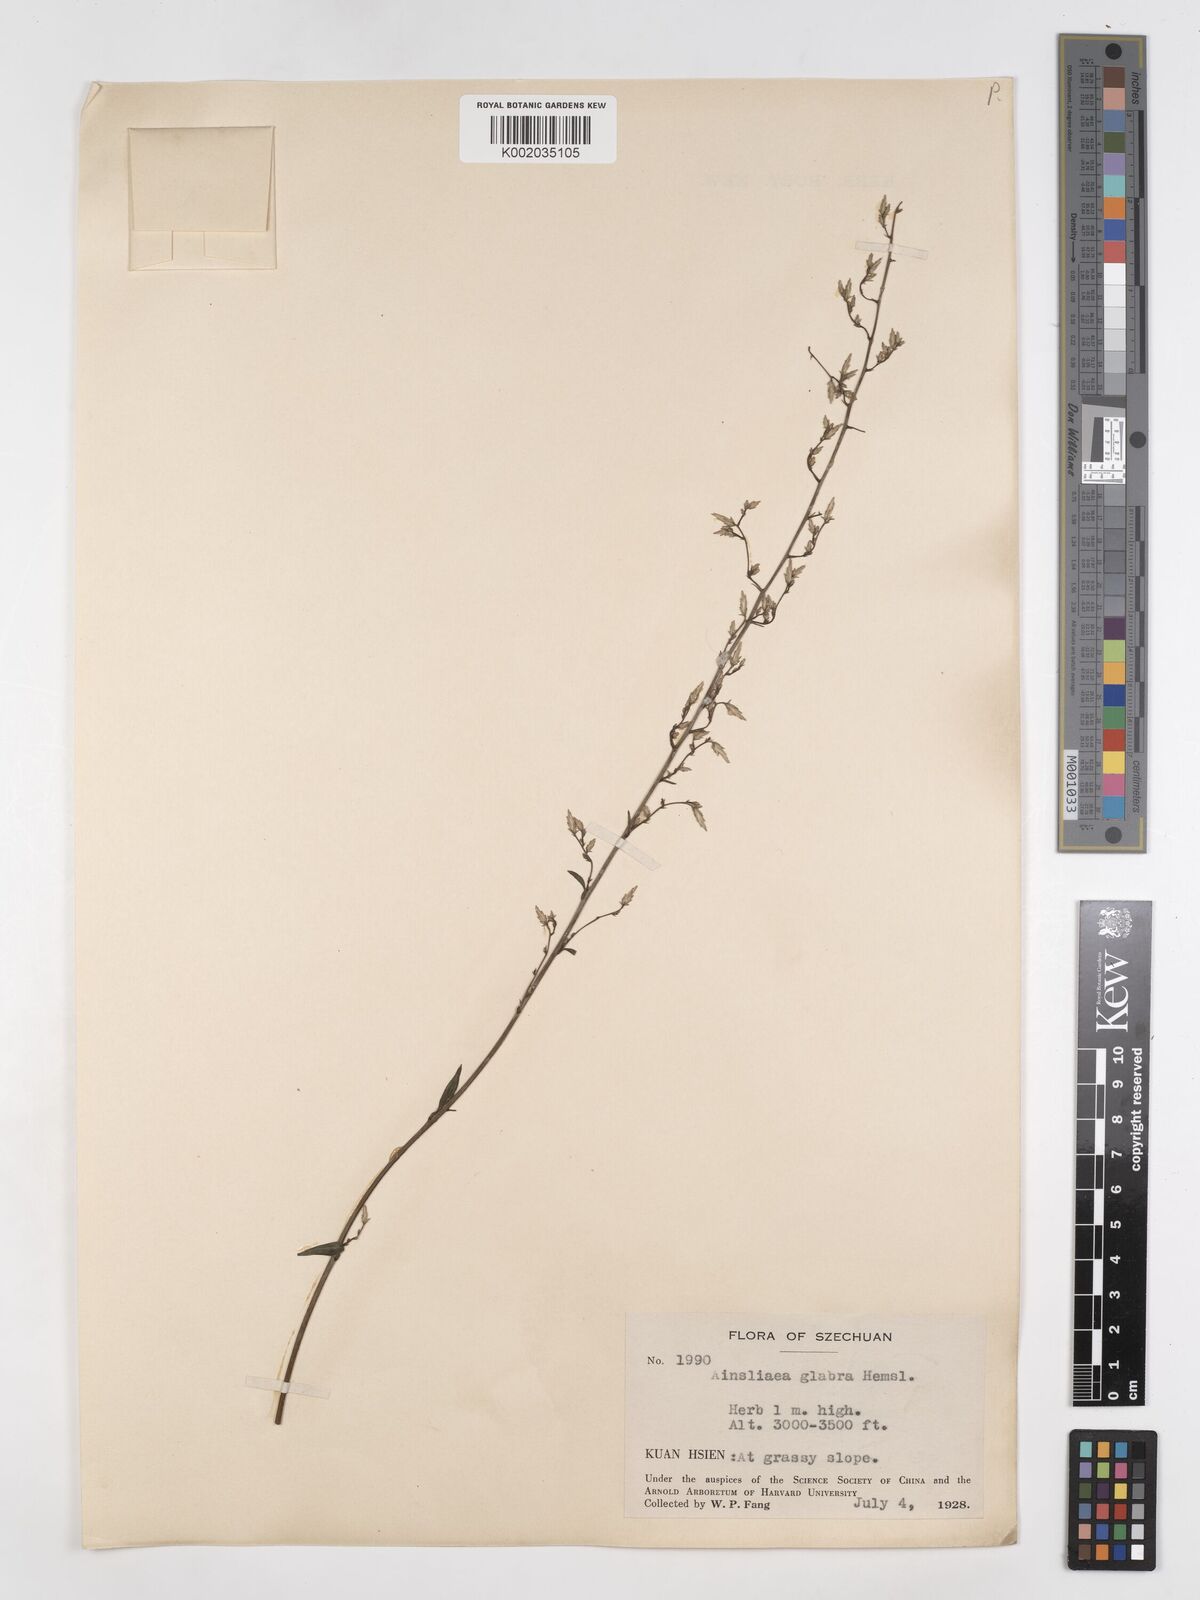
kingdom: Plantae
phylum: Tracheophyta
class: Magnoliopsida
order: Asterales
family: Asteraceae
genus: Ainsliaea
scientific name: Ainsliaea glabra
